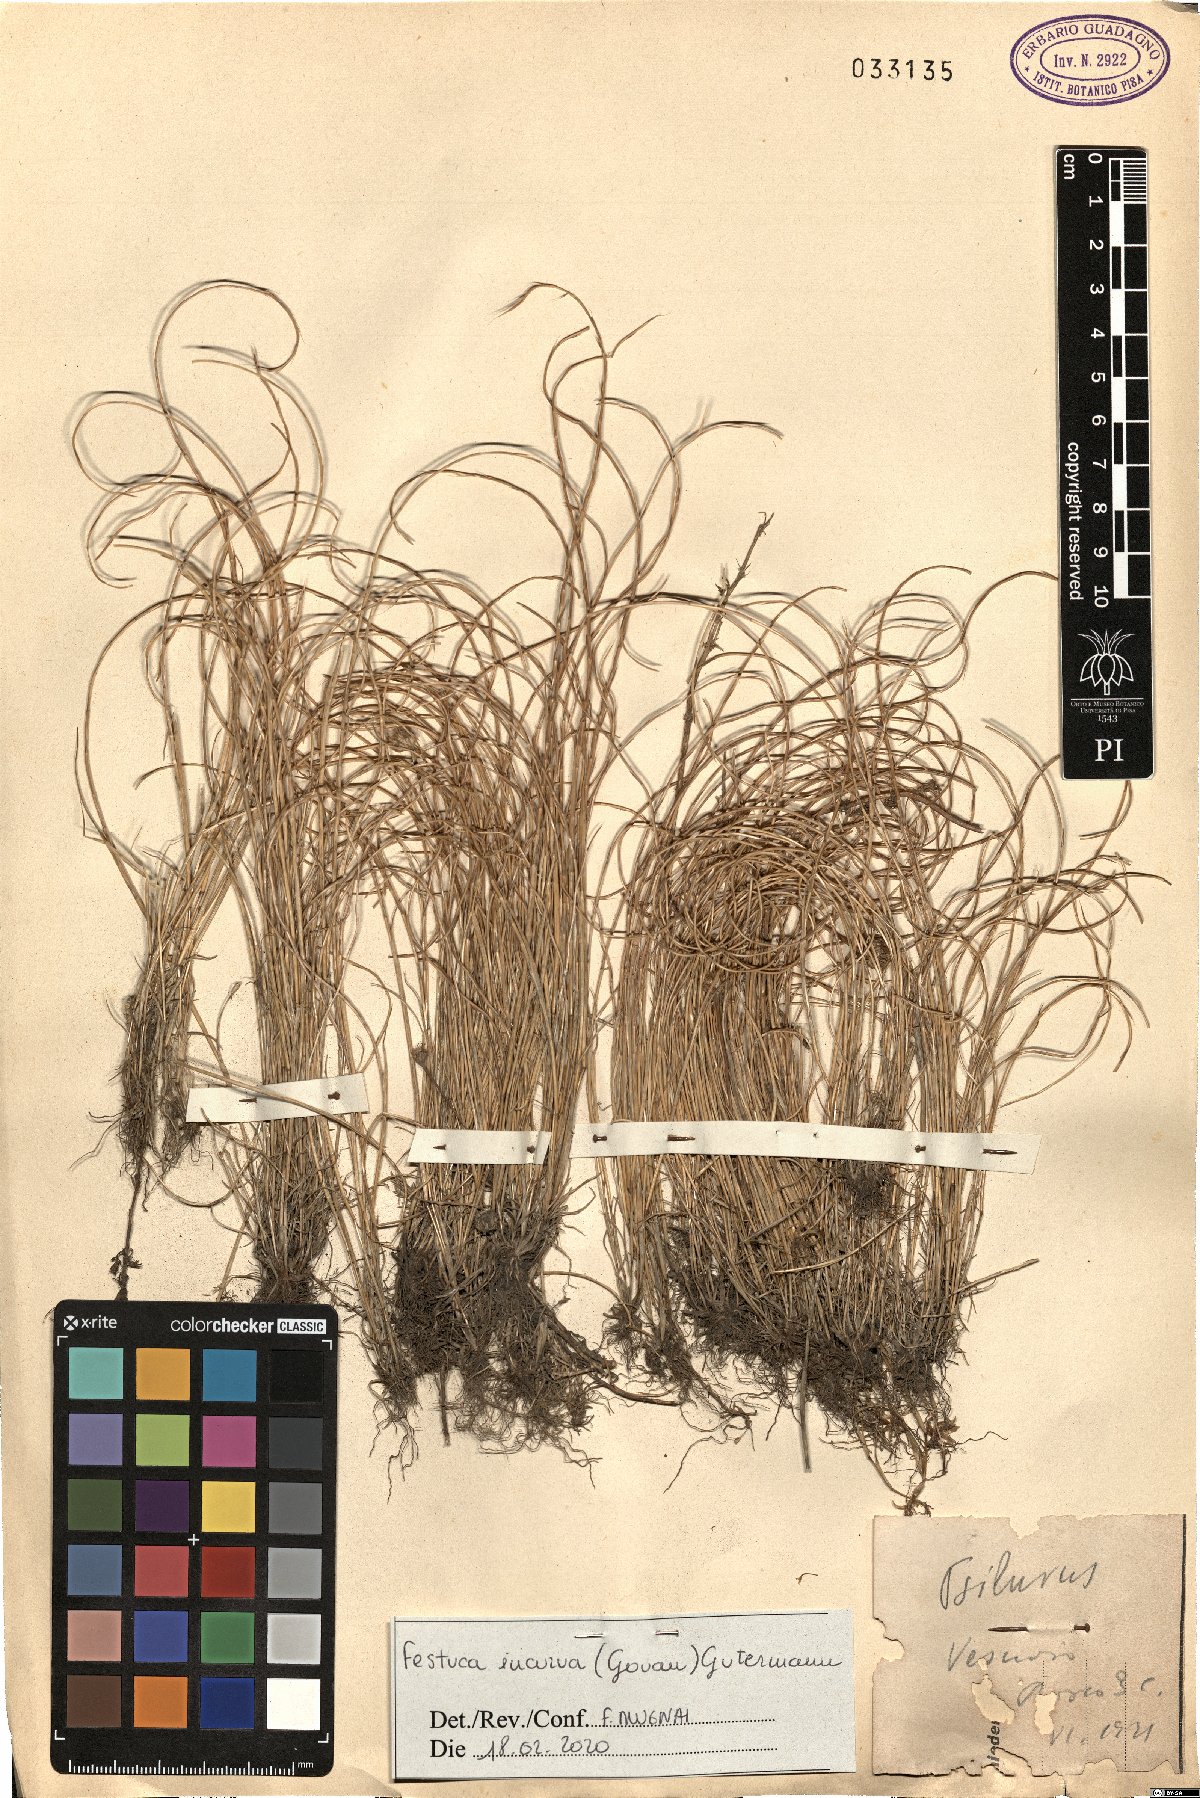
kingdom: Plantae
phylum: Tracheophyta
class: Liliopsida
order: Poales
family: Poaceae
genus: Festuca
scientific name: Festuca incurva
